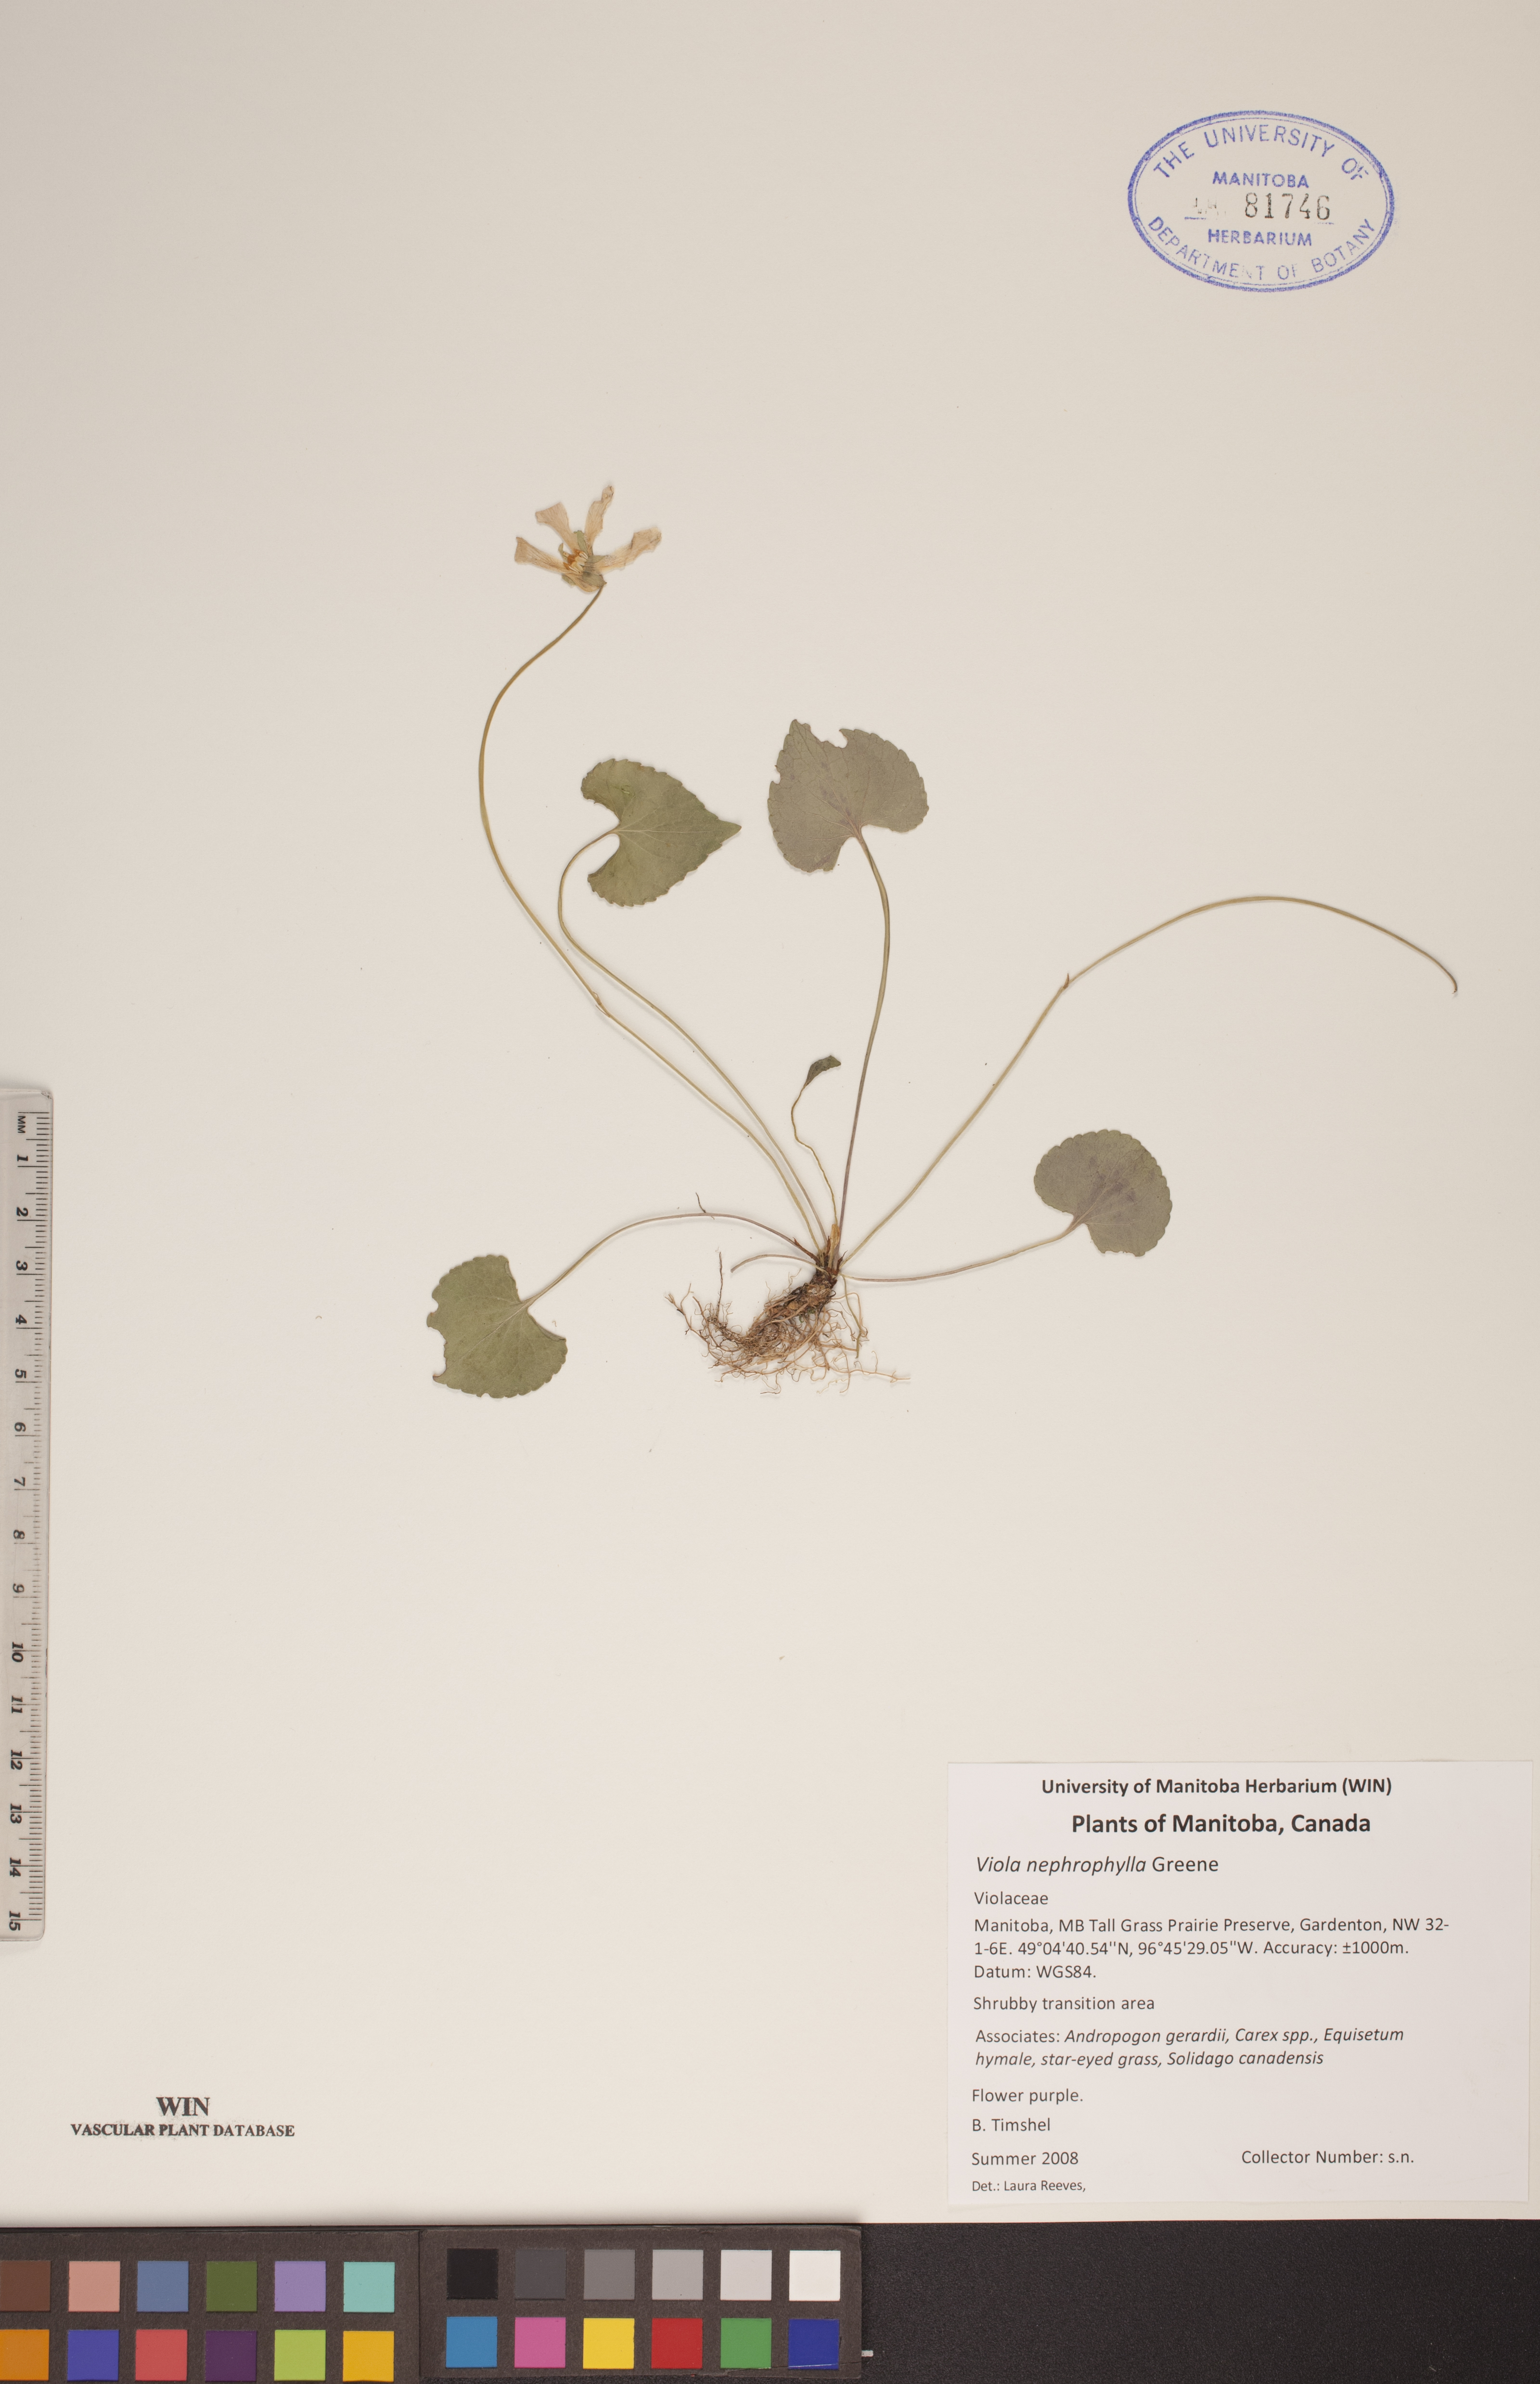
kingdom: Plantae
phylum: Tracheophyta
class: Magnoliopsida
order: Malpighiales
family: Violaceae
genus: Viola
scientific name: Viola nephrophylla
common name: Blue meadow violet
